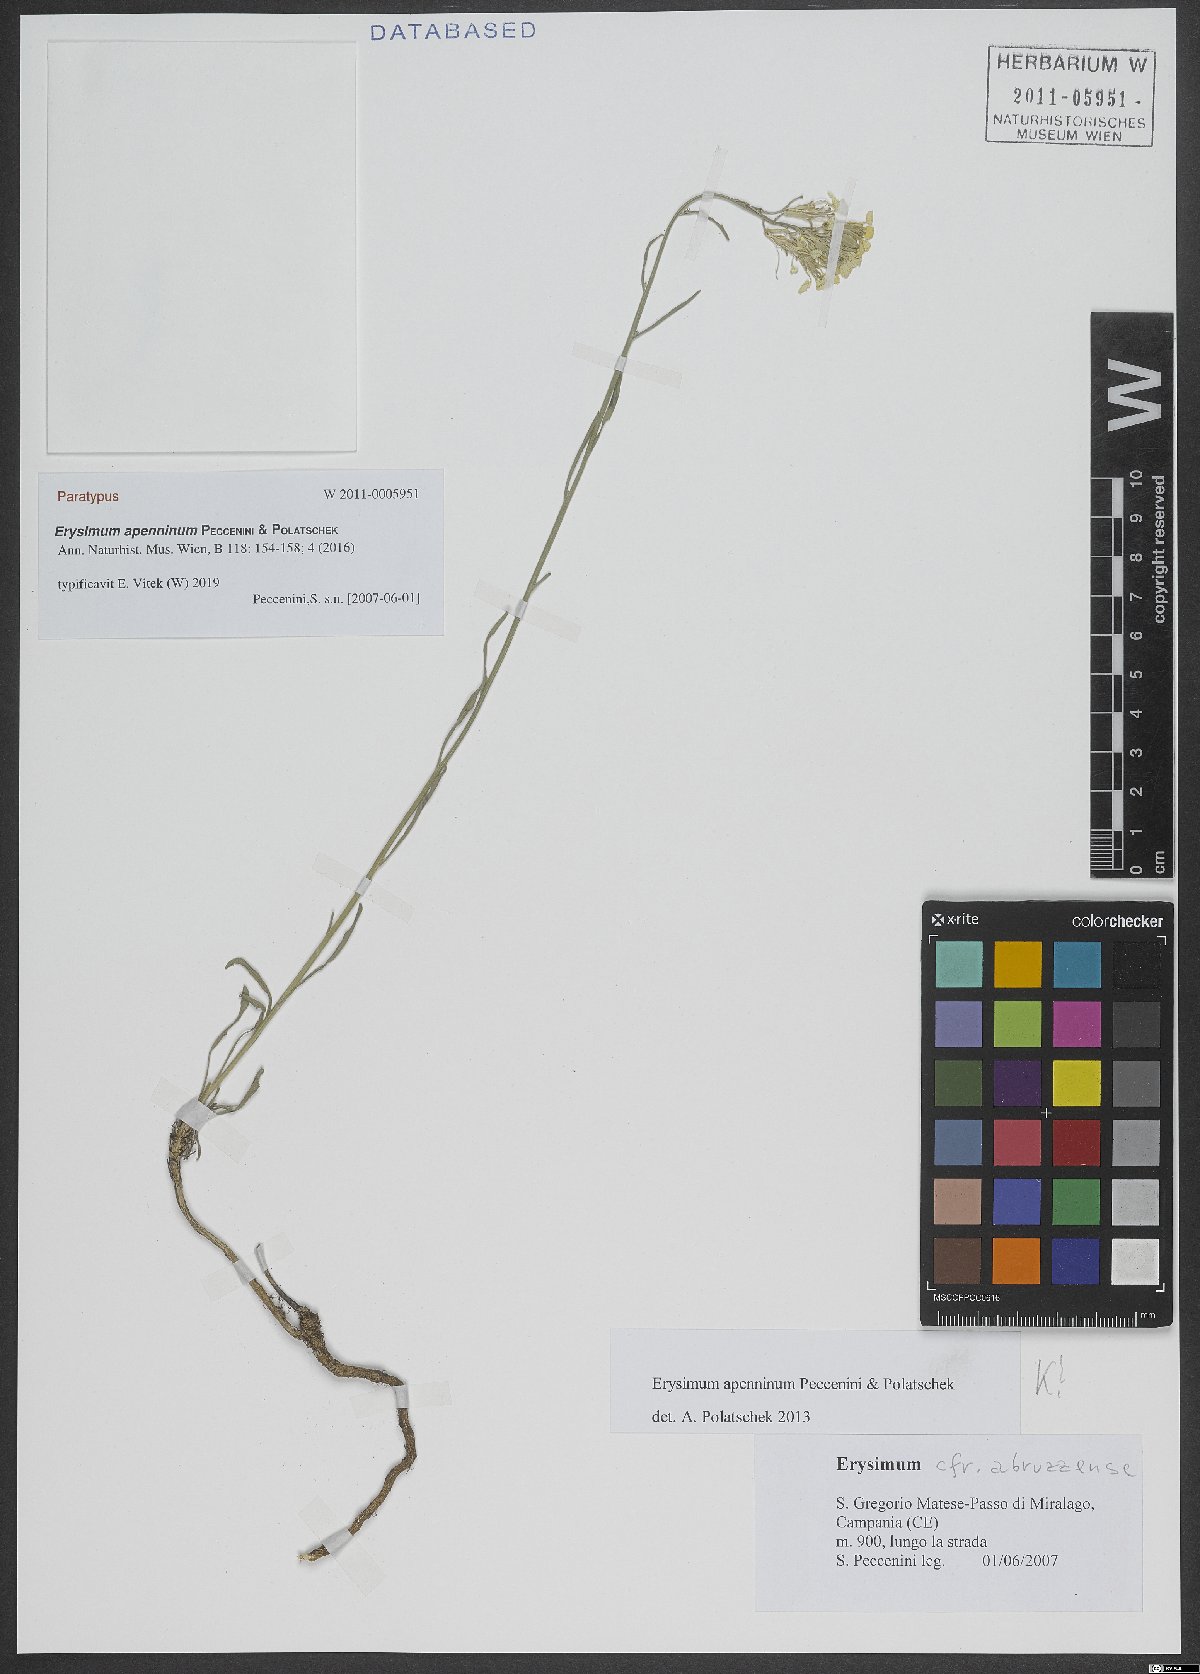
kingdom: Plantae
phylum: Tracheophyta
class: Magnoliopsida
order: Brassicales
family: Brassicaceae
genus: Erysimum
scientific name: Erysimum apenninum
